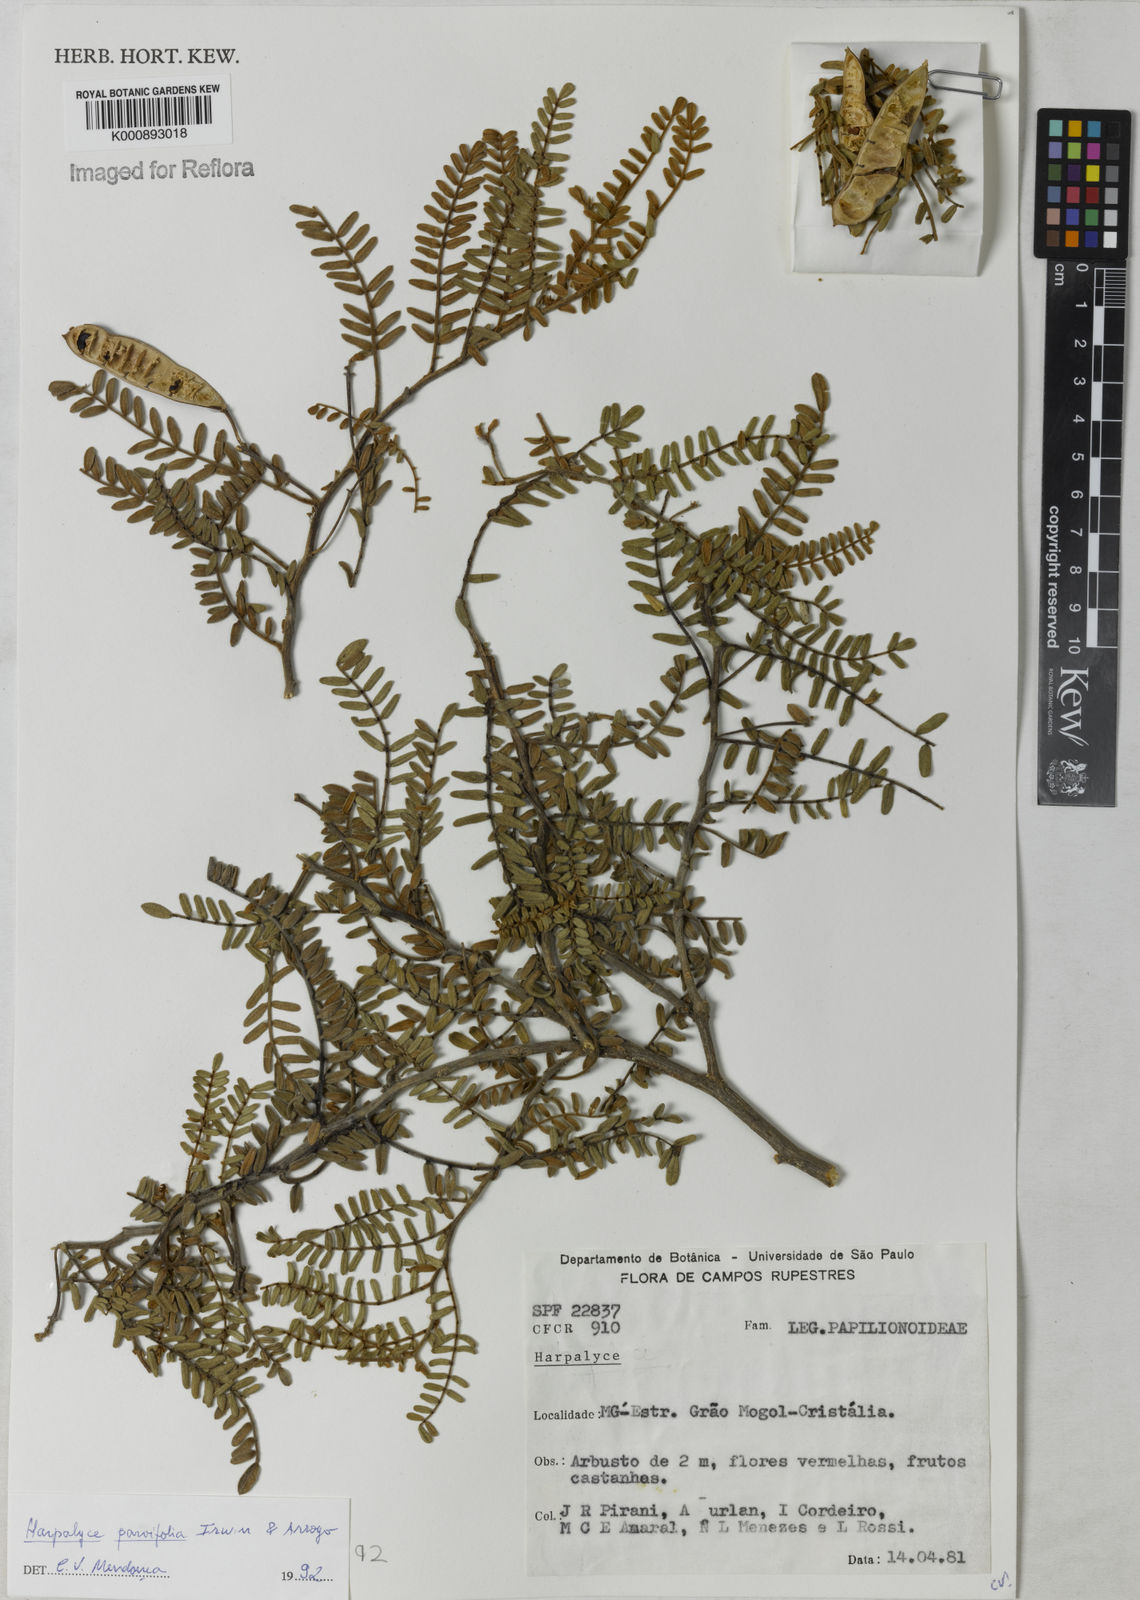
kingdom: Plantae
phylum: Tracheophyta
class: Magnoliopsida
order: Fabales
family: Fabaceae
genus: Harpalyce
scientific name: Harpalyce parvifolia
